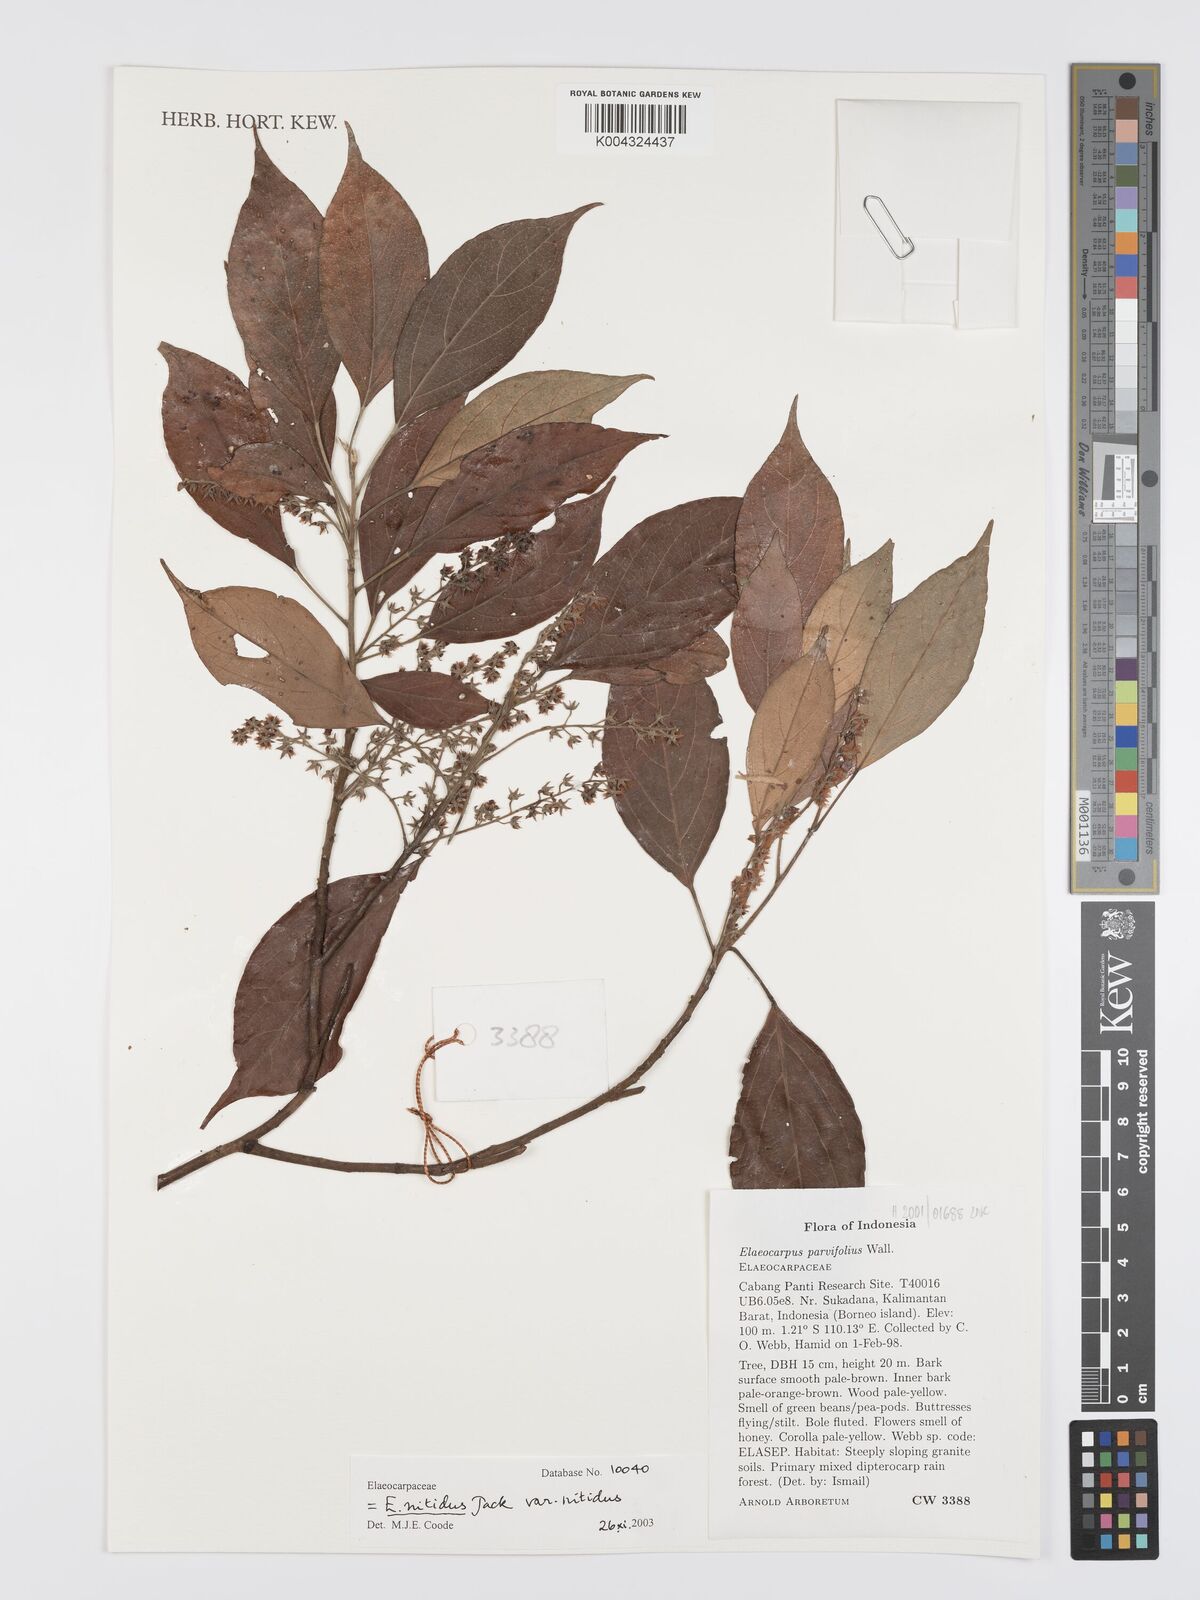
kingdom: Plantae
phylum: Tracheophyta
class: Magnoliopsida
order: Oxalidales
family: Elaeocarpaceae
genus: Elaeocarpus
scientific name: Elaeocarpus nitidus
